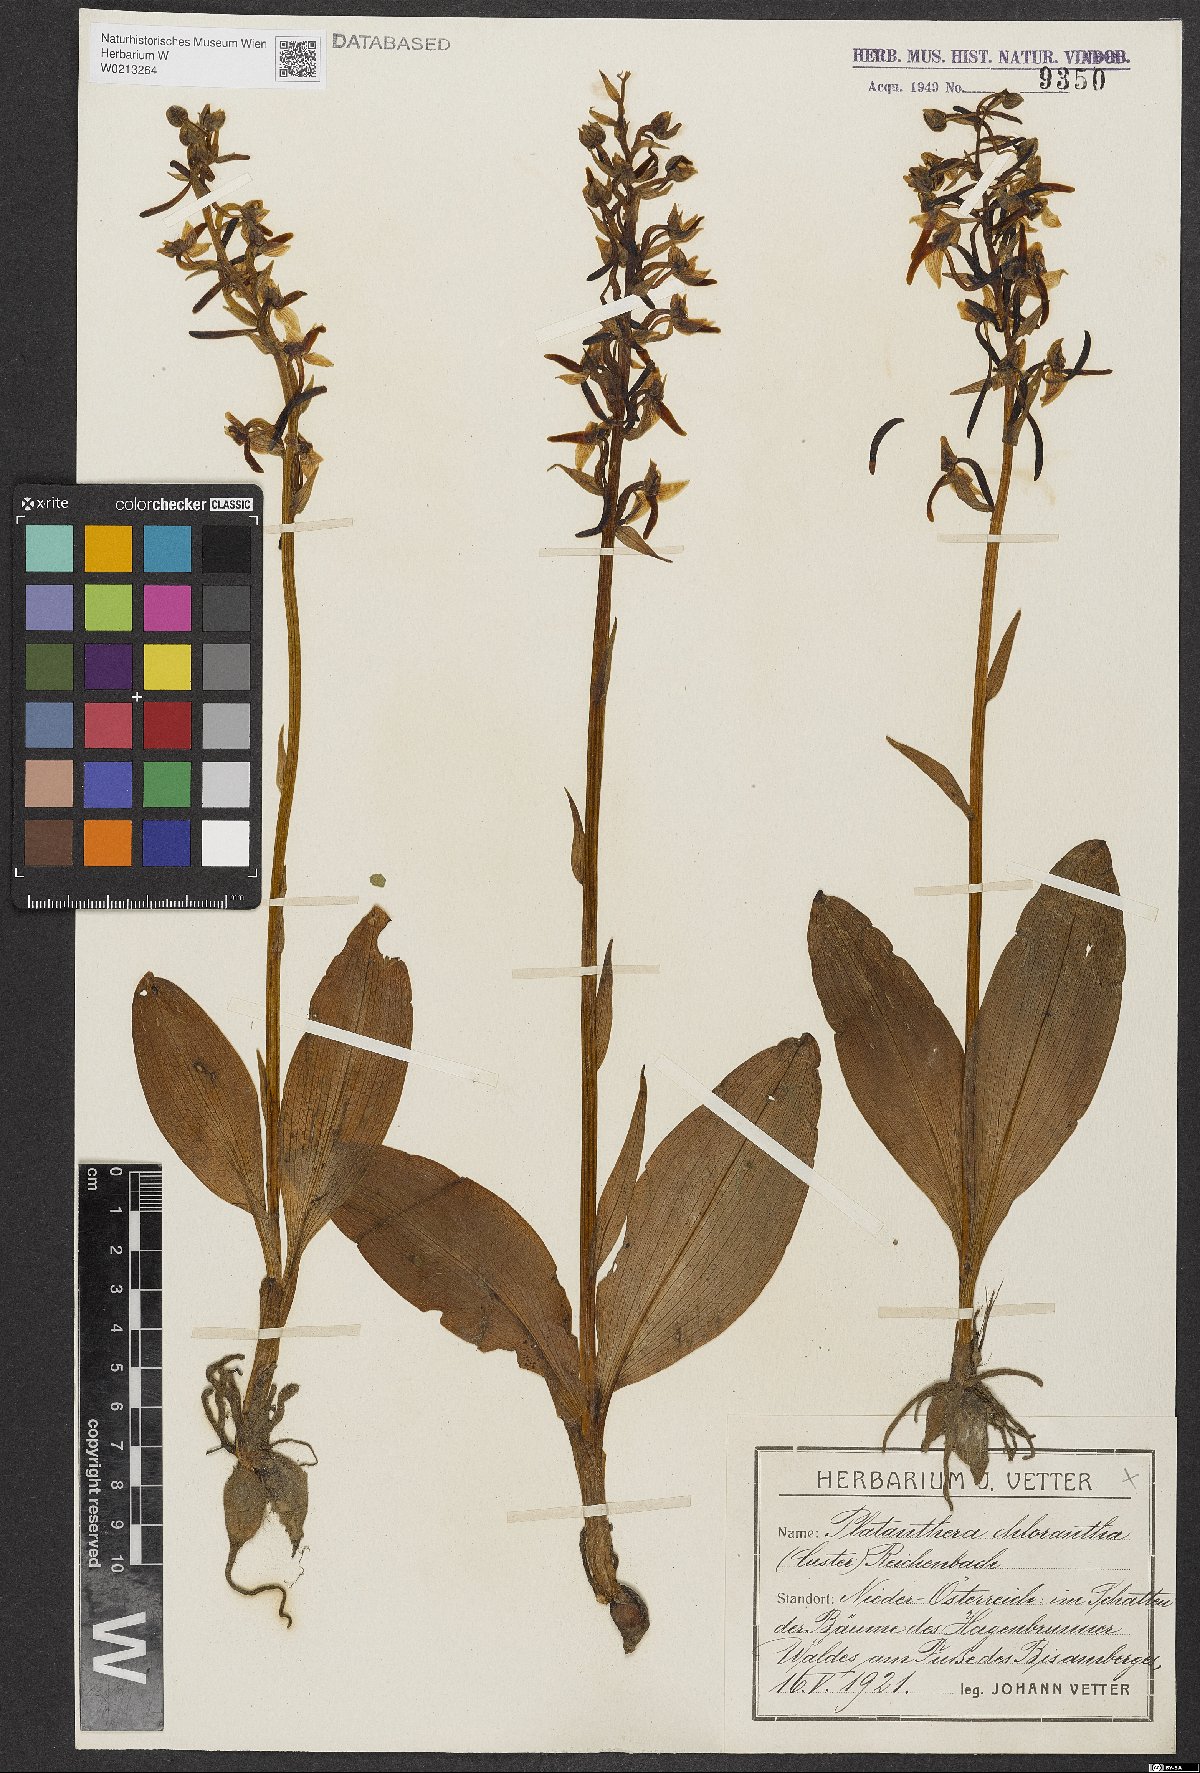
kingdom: Plantae
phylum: Tracheophyta
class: Liliopsida
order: Asparagales
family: Orchidaceae
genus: Platanthera
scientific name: Platanthera chlorantha
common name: Greater butterfly-orchid
